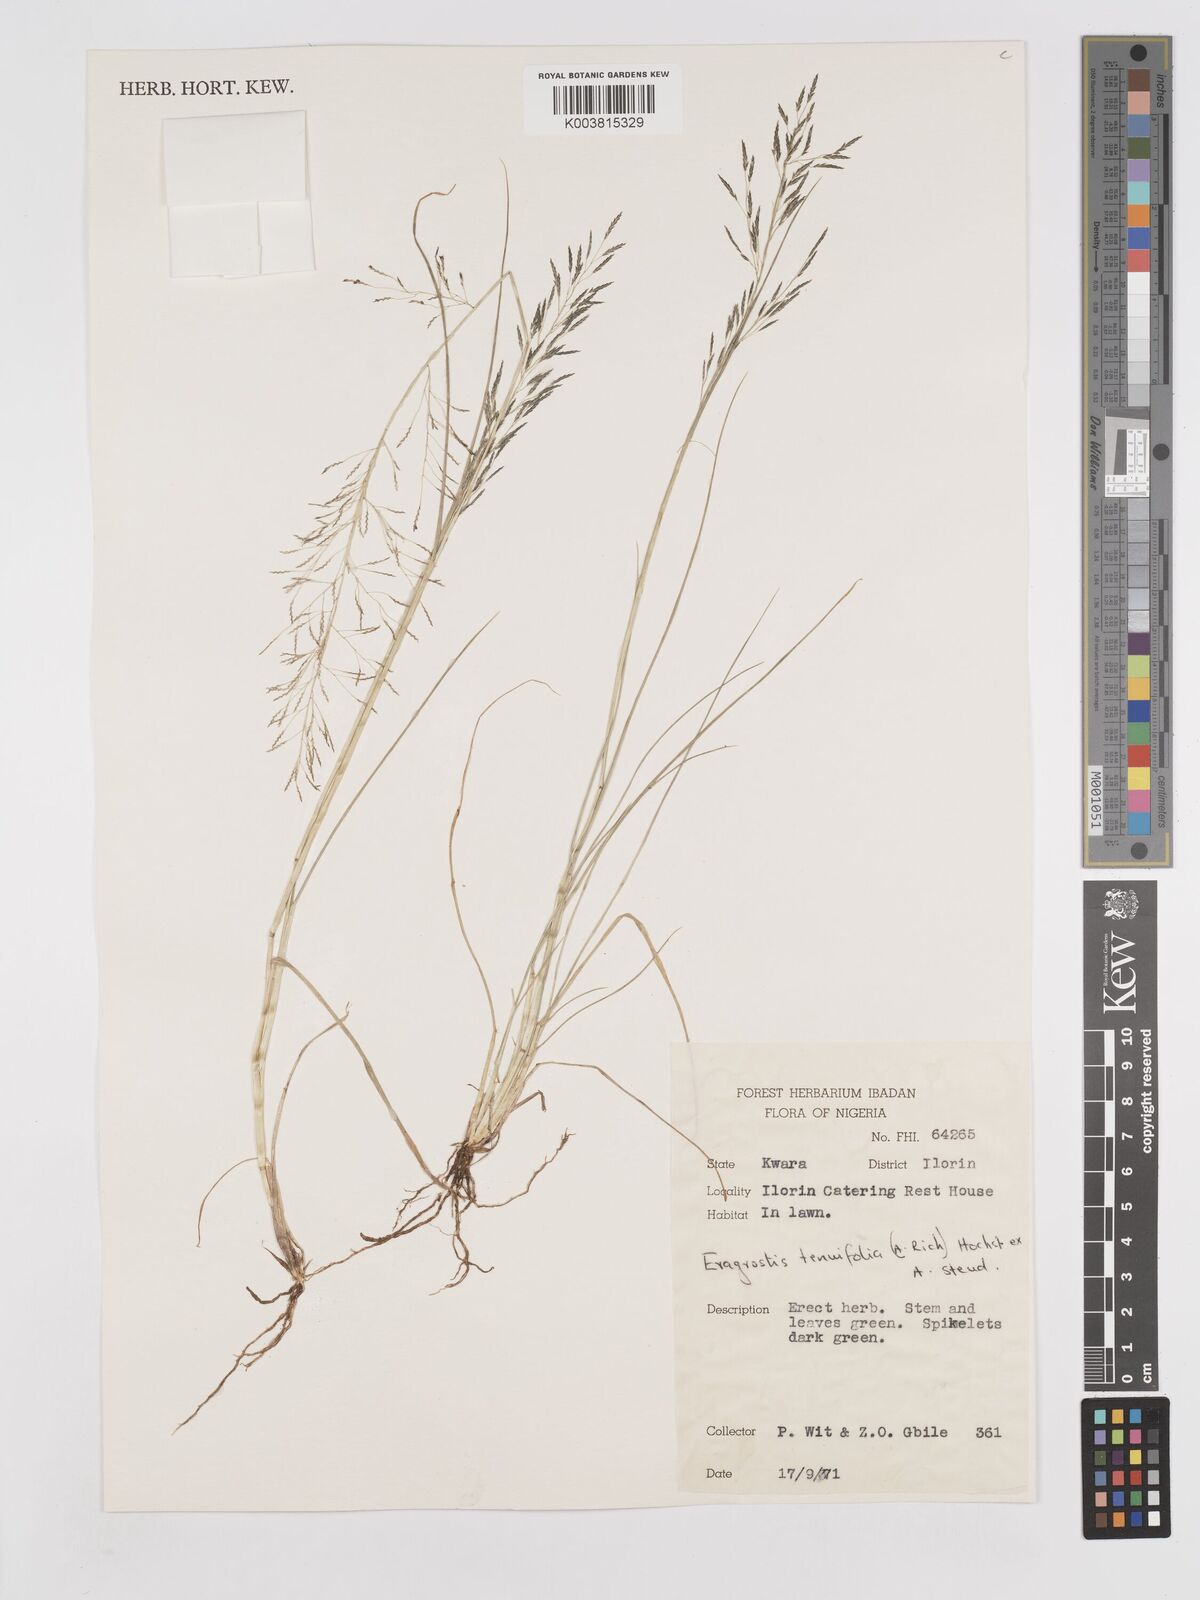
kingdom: Plantae
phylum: Tracheophyta
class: Liliopsida
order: Poales
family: Poaceae
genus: Eragrostis
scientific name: Eragrostis tenuifolia
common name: Elastic grass
